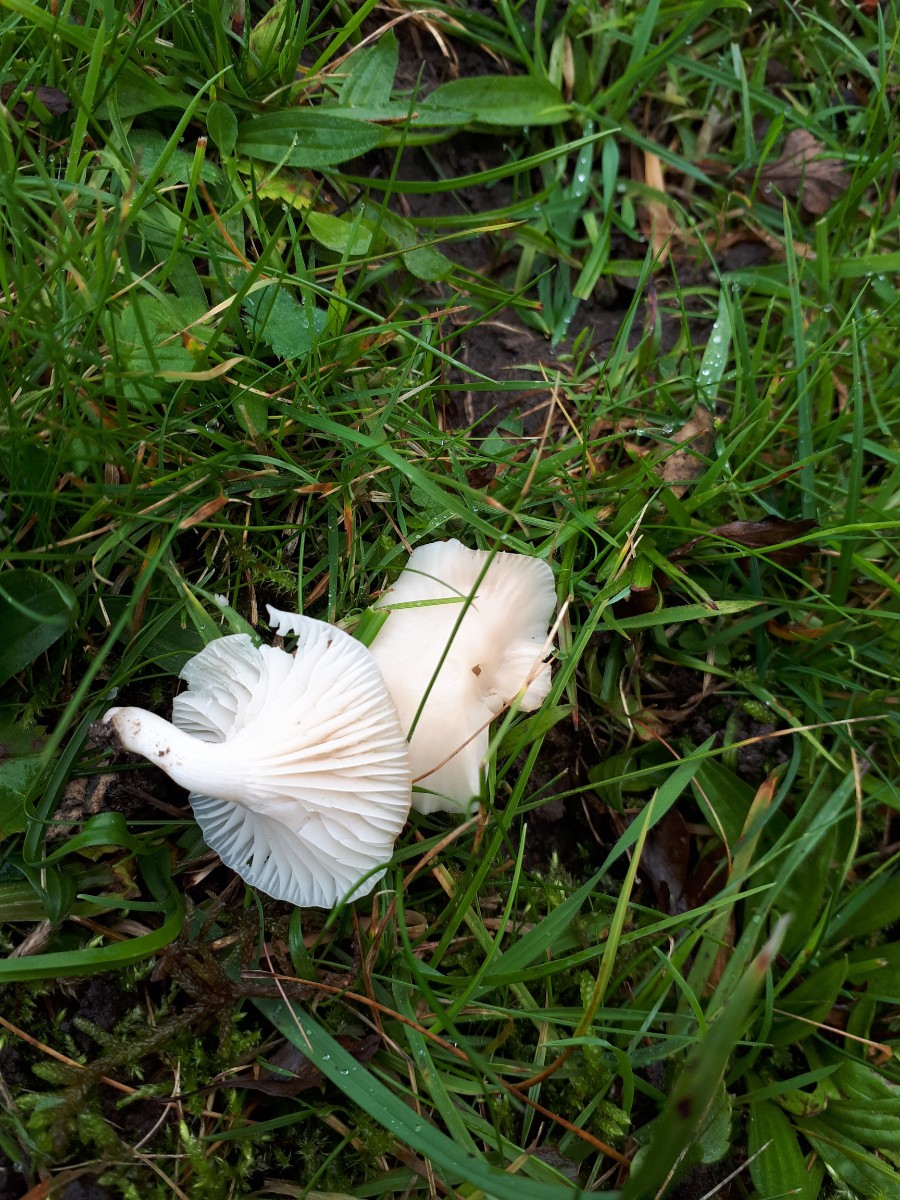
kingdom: Fungi
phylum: Basidiomycota
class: Agaricomycetes
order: Agaricales
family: Hygrophoraceae
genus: Cuphophyllus
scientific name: Cuphophyllus virgineus
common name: snehvid vokshat
